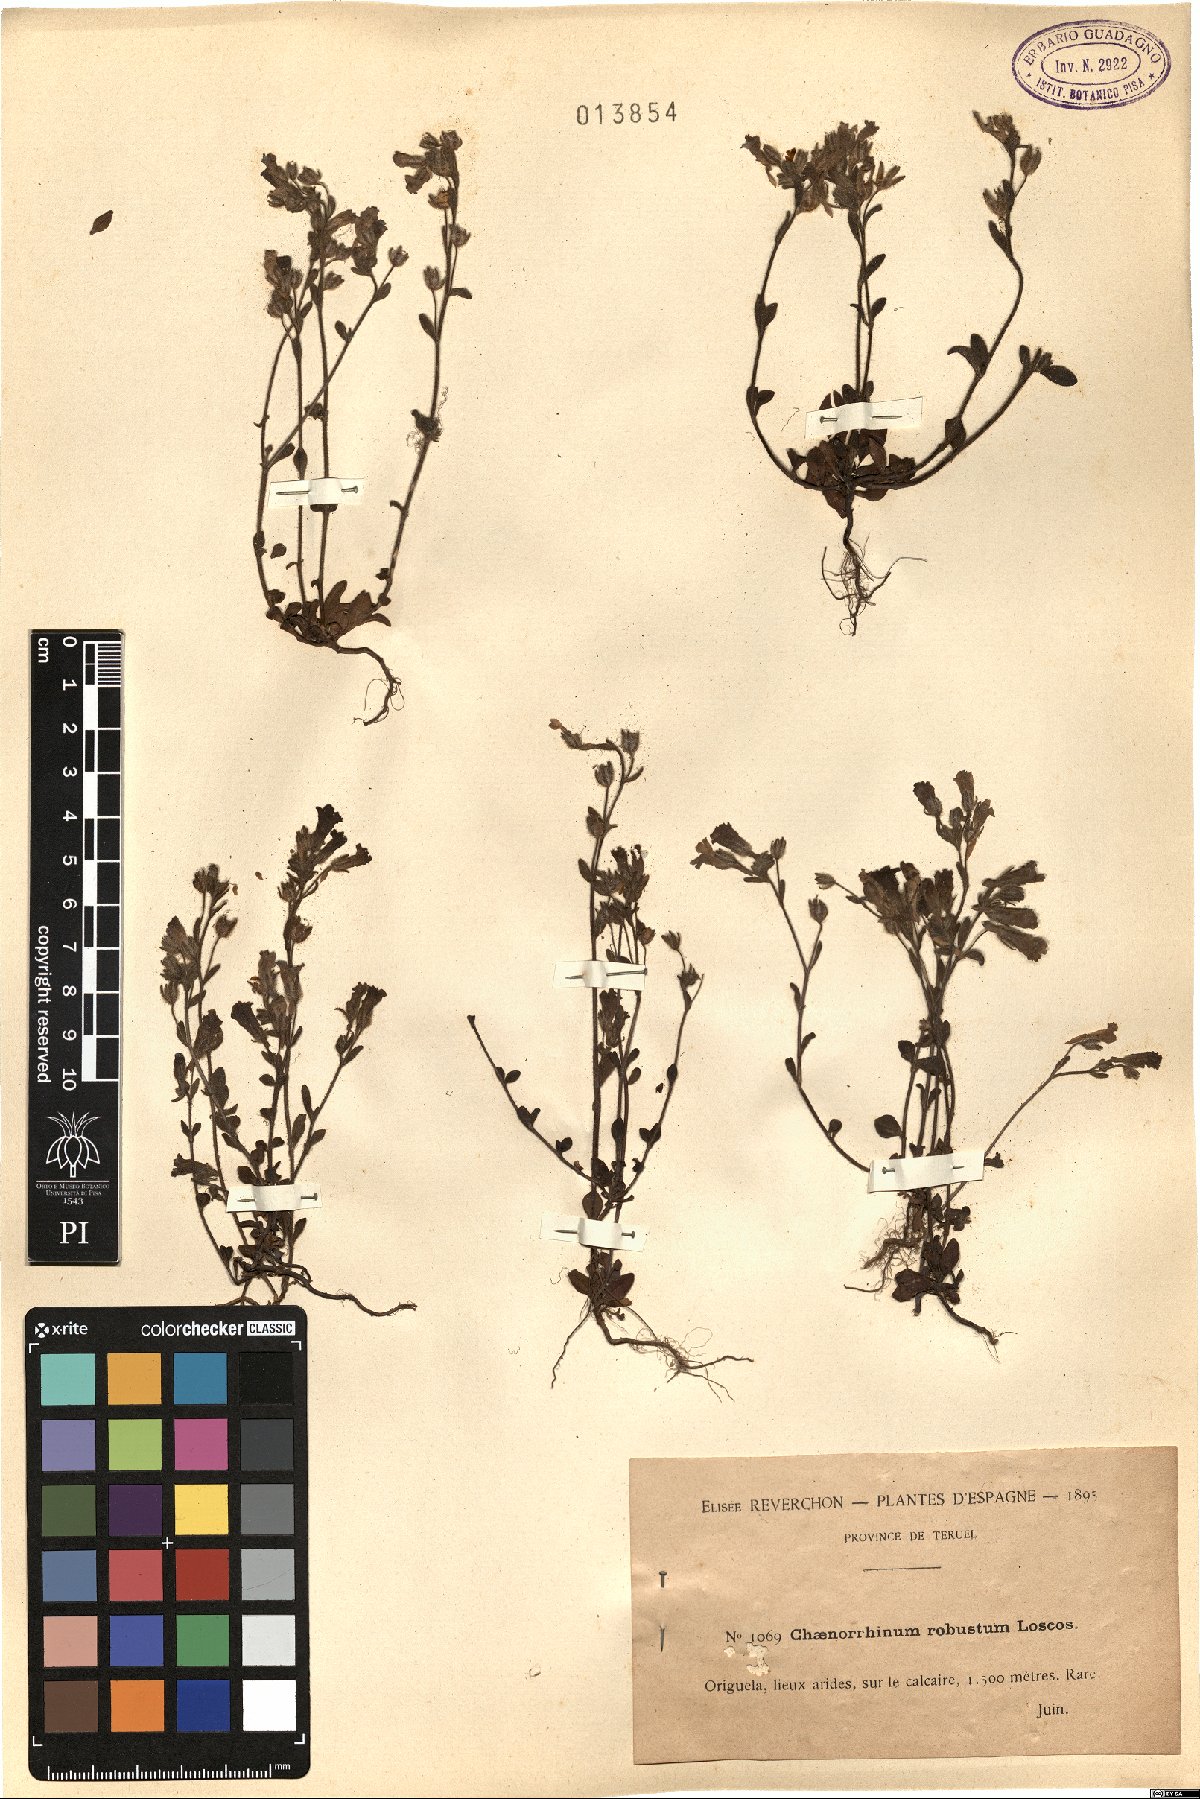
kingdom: Plantae
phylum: Tracheophyta
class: Magnoliopsida
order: Lamiales
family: Plantaginaceae
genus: Chaenorhinum
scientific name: Chaenorhinum robustum
